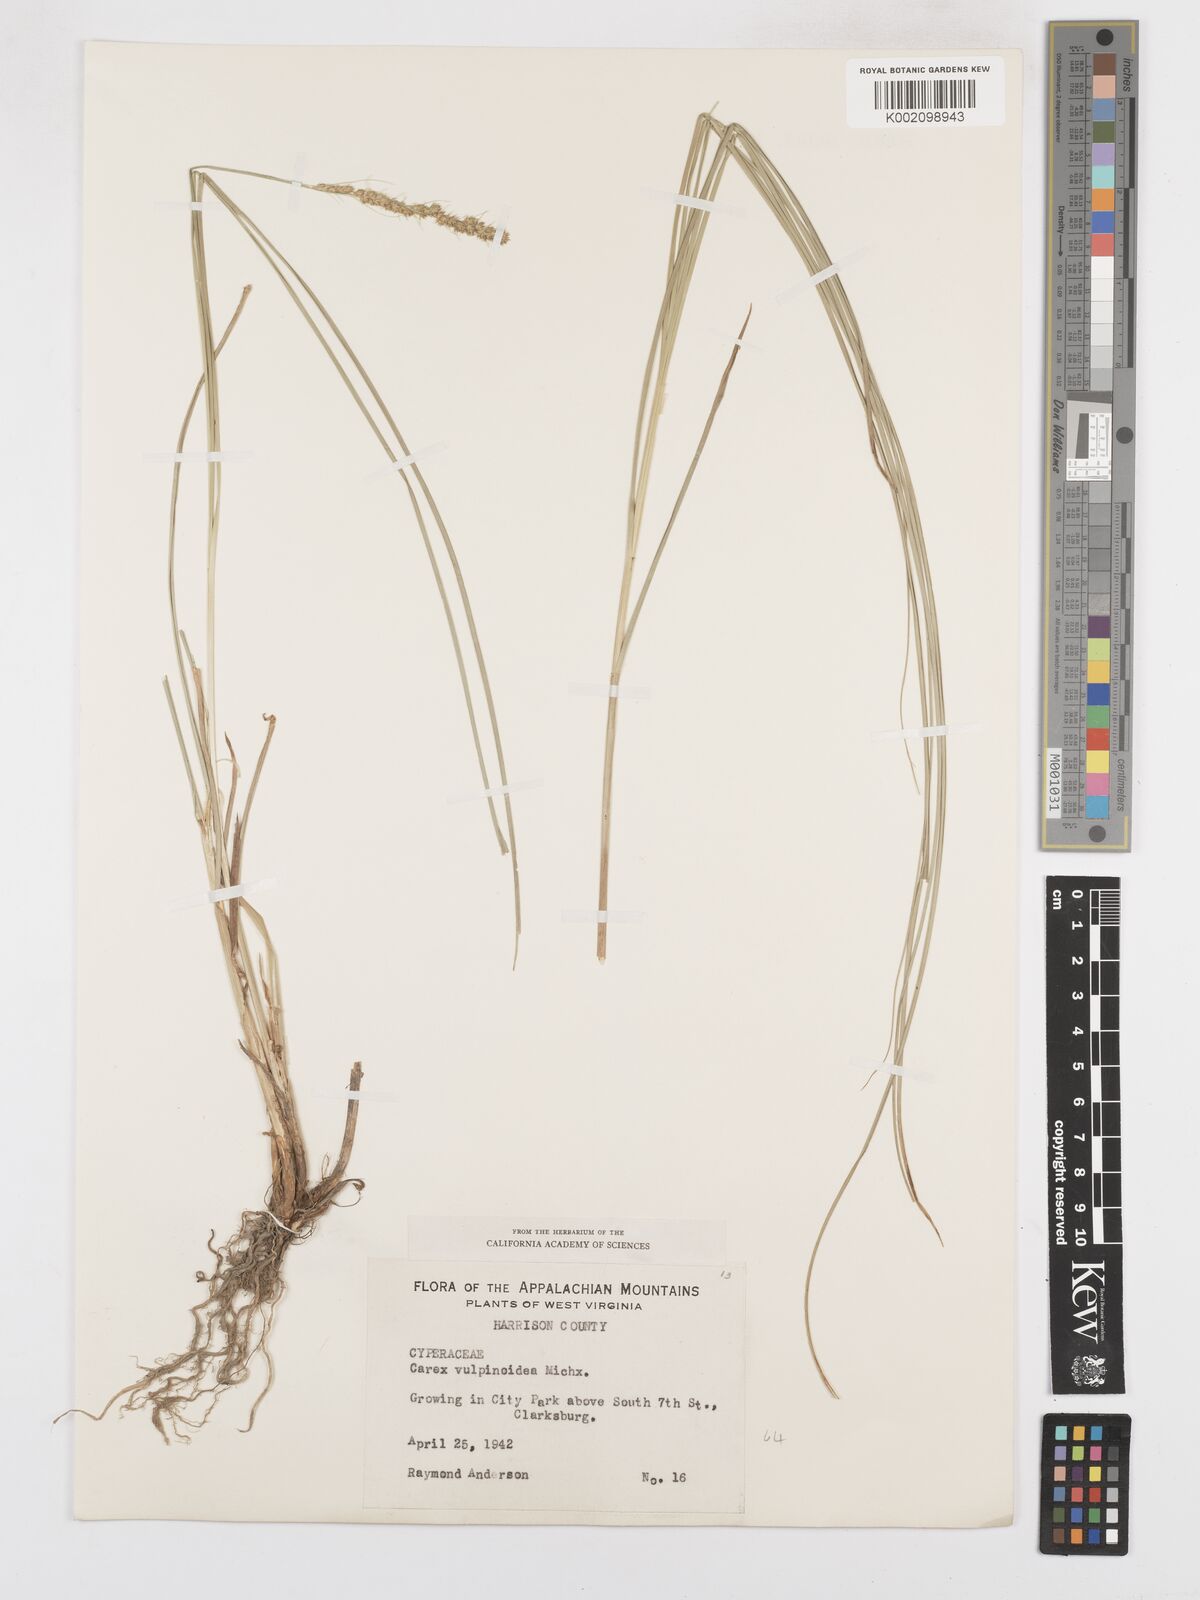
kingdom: Plantae
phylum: Tracheophyta
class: Liliopsida
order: Poales
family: Cyperaceae
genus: Carex
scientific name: Carex vulpinoidea
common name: American fox-sedge
